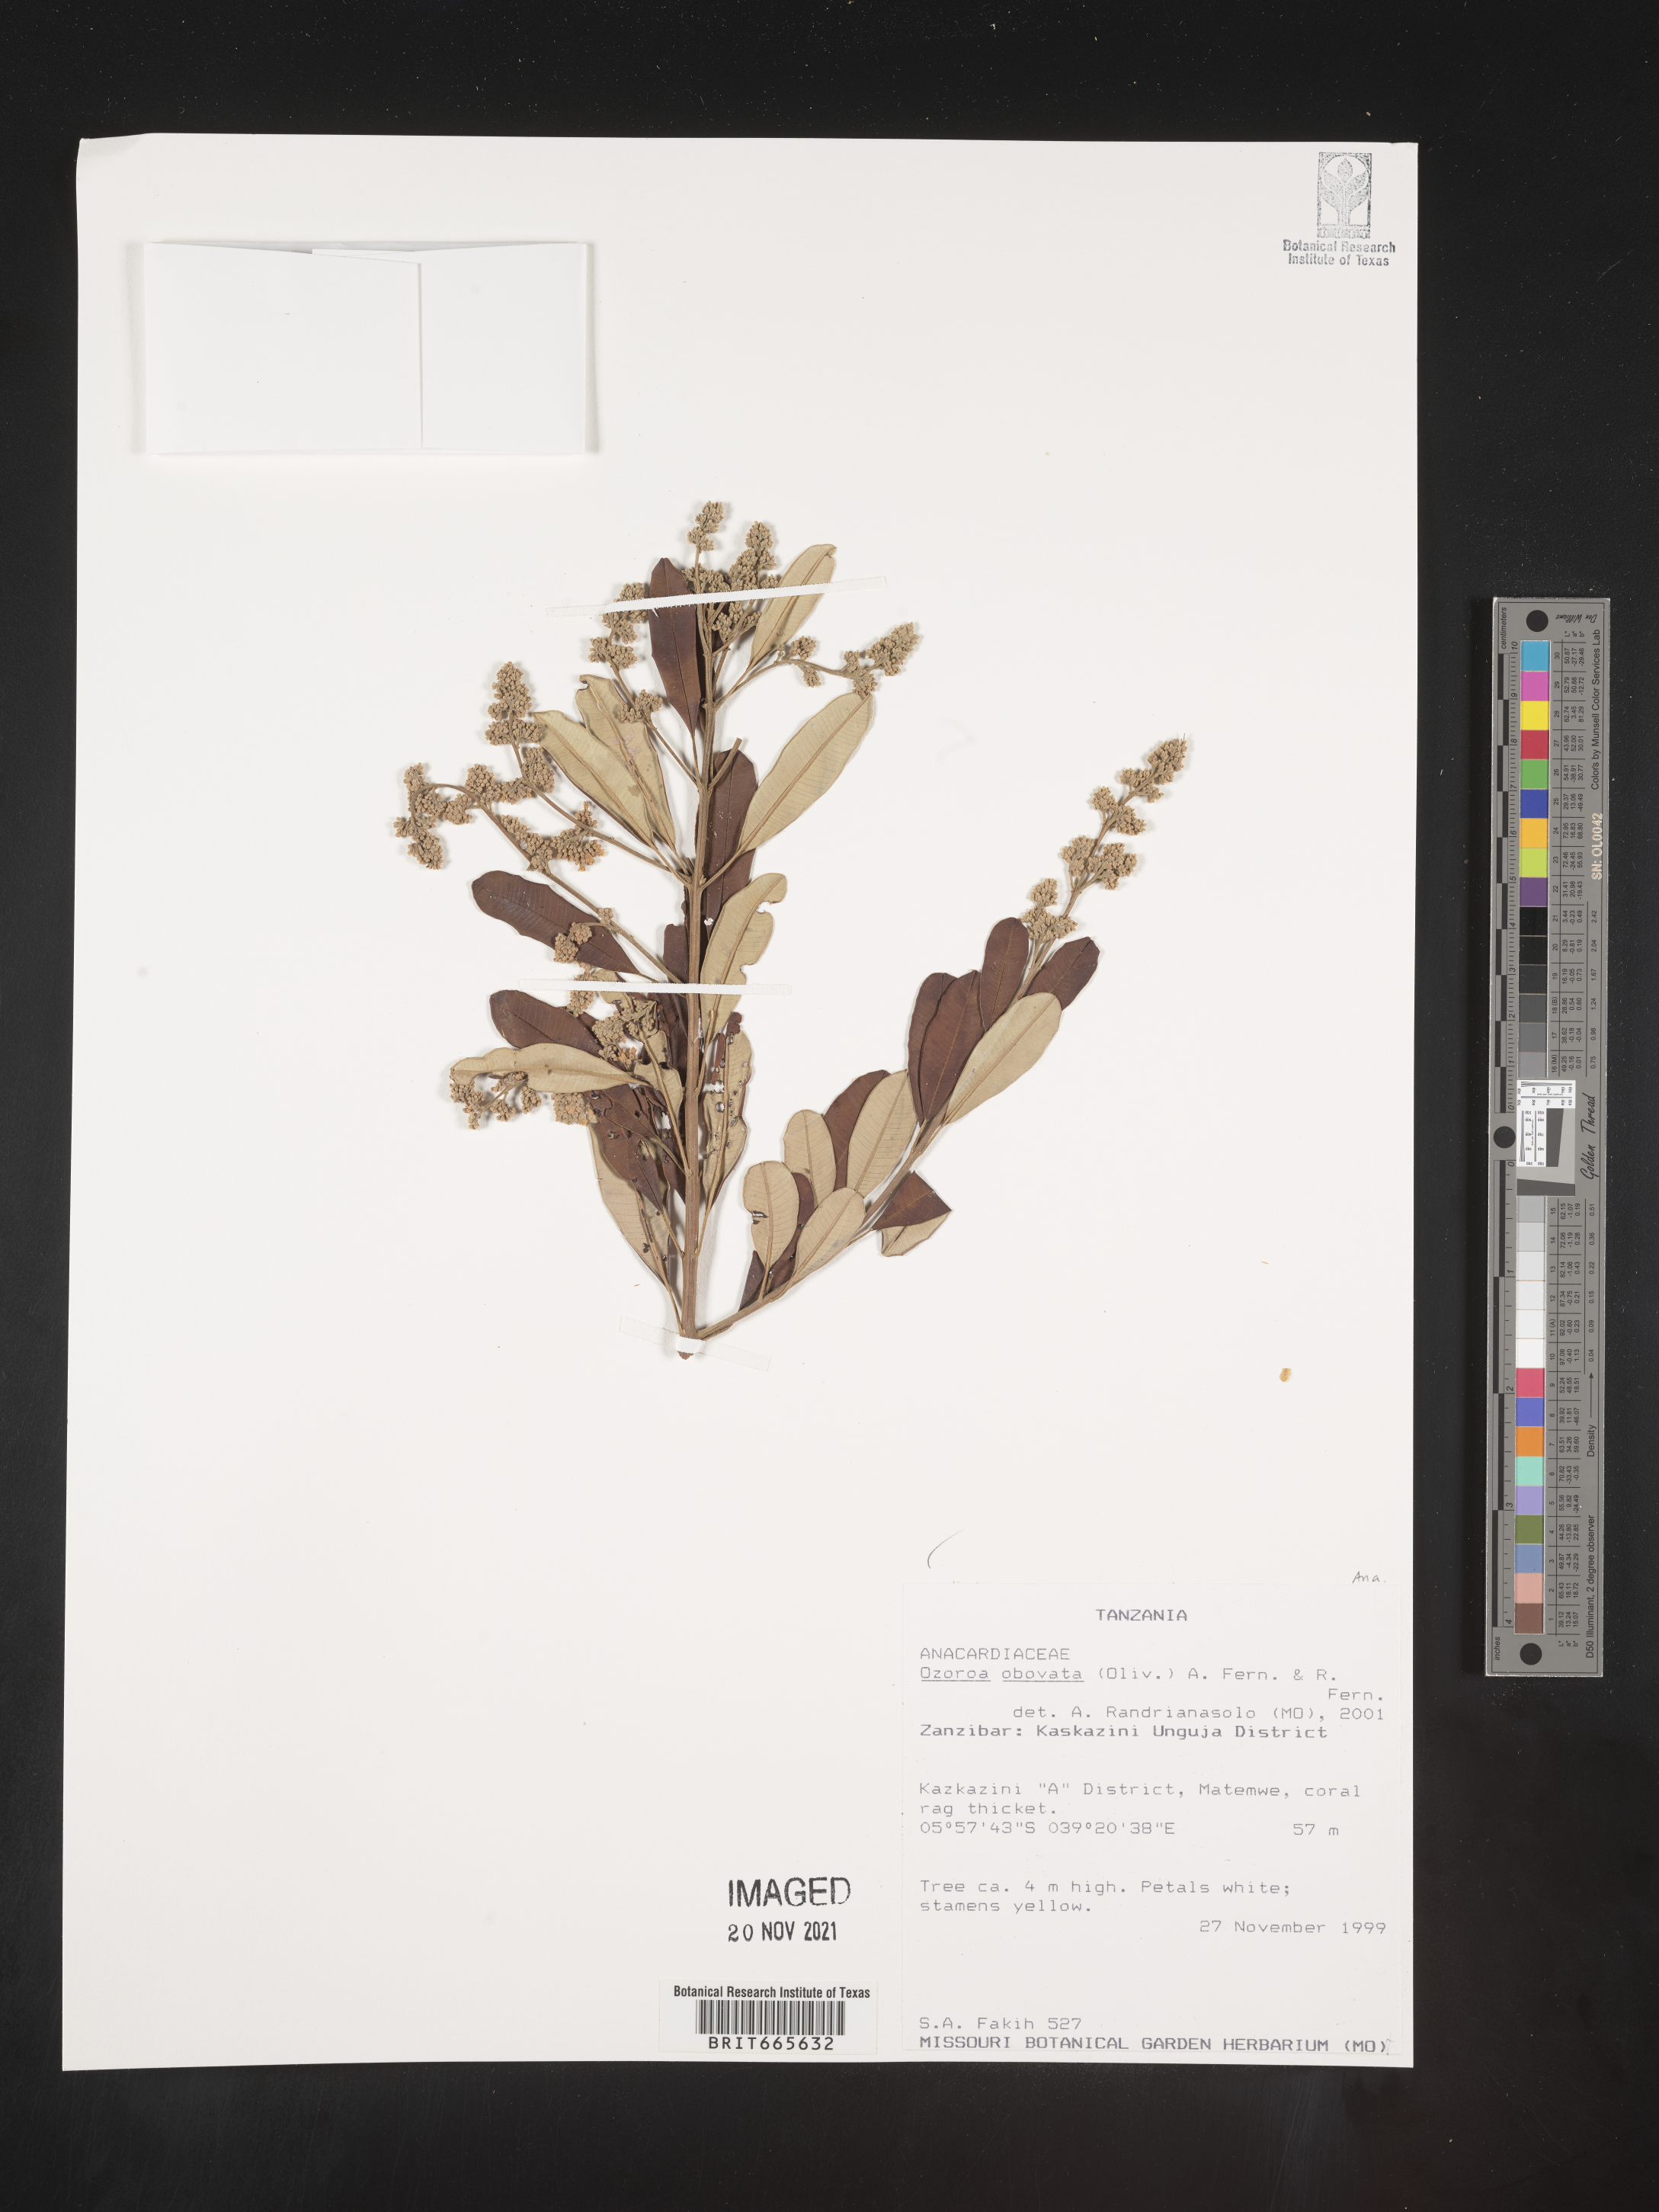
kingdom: Plantae
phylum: Tracheophyta
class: Magnoliopsida
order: Sapindales
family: Anacardiaceae
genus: Ozoroa
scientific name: Ozoroa
